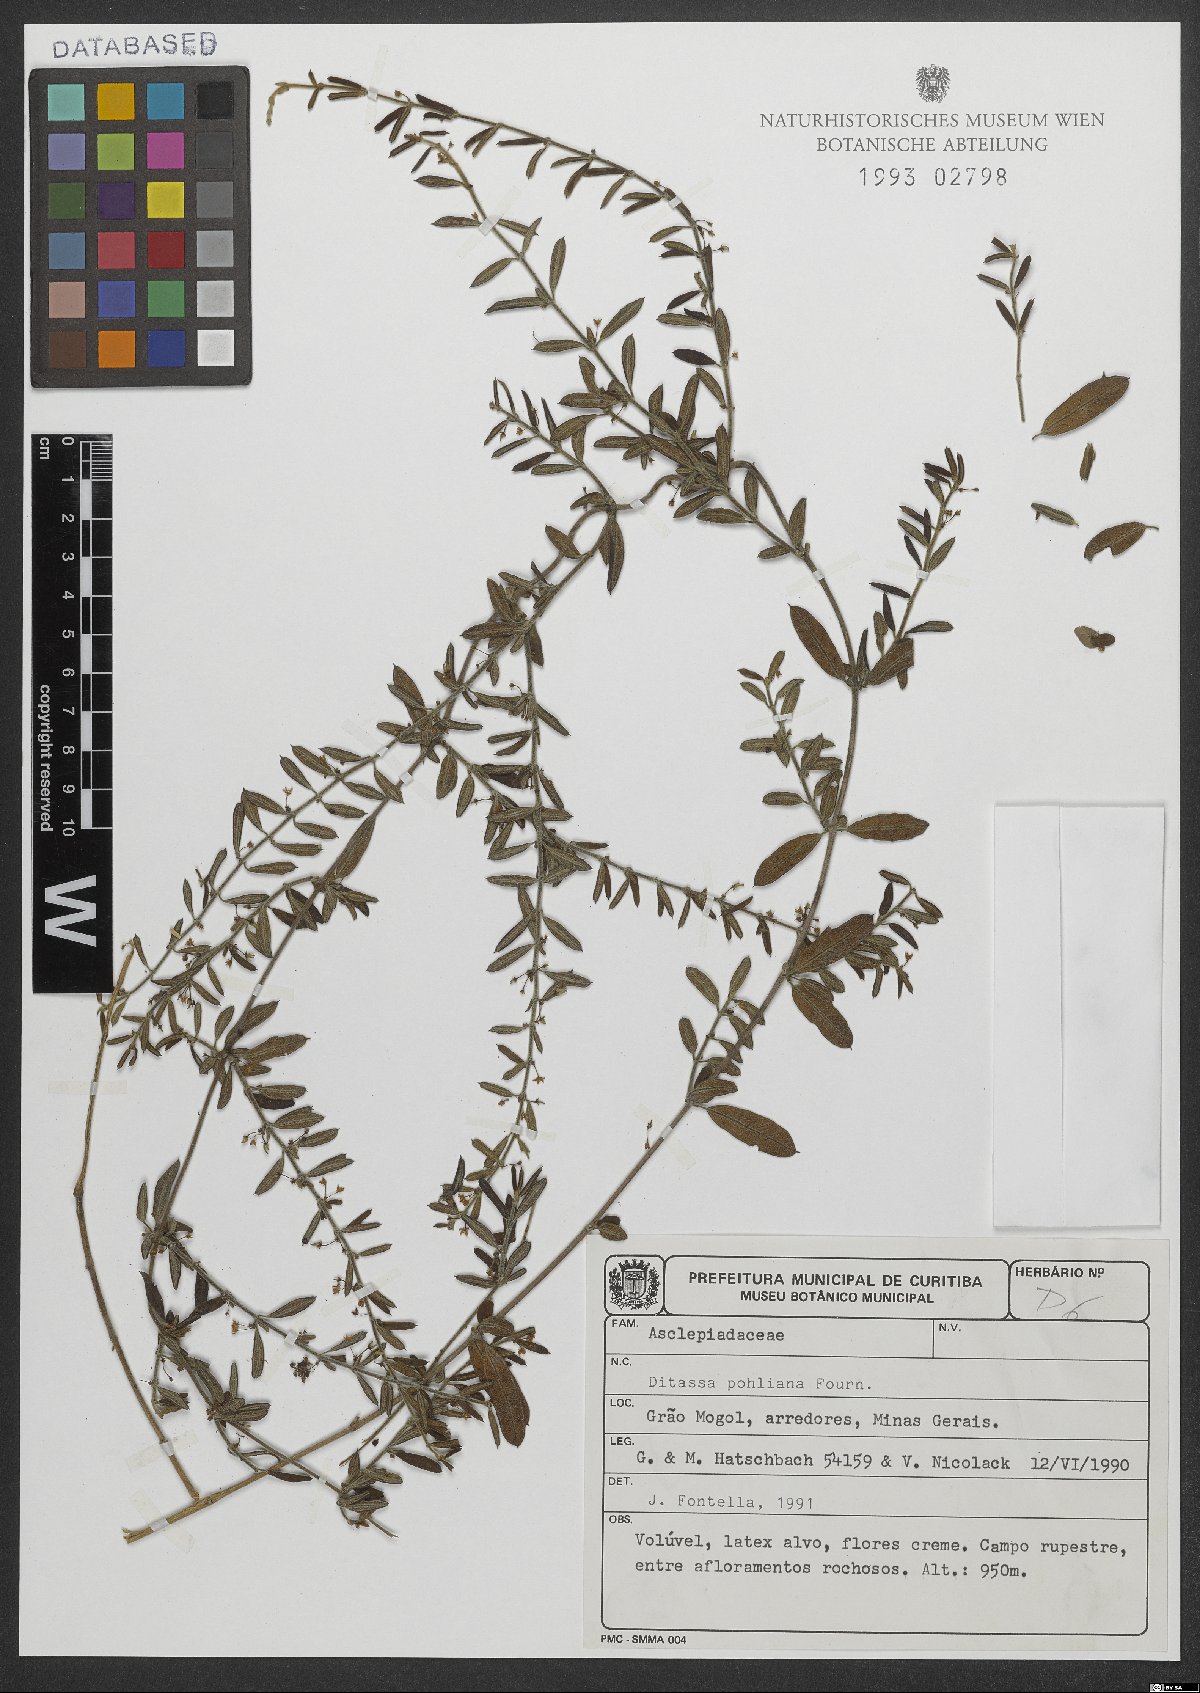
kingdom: Plantae
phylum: Tracheophyta
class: Magnoliopsida
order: Gentianales
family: Apocynaceae
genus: Ditassa
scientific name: Ditassa pohliana
